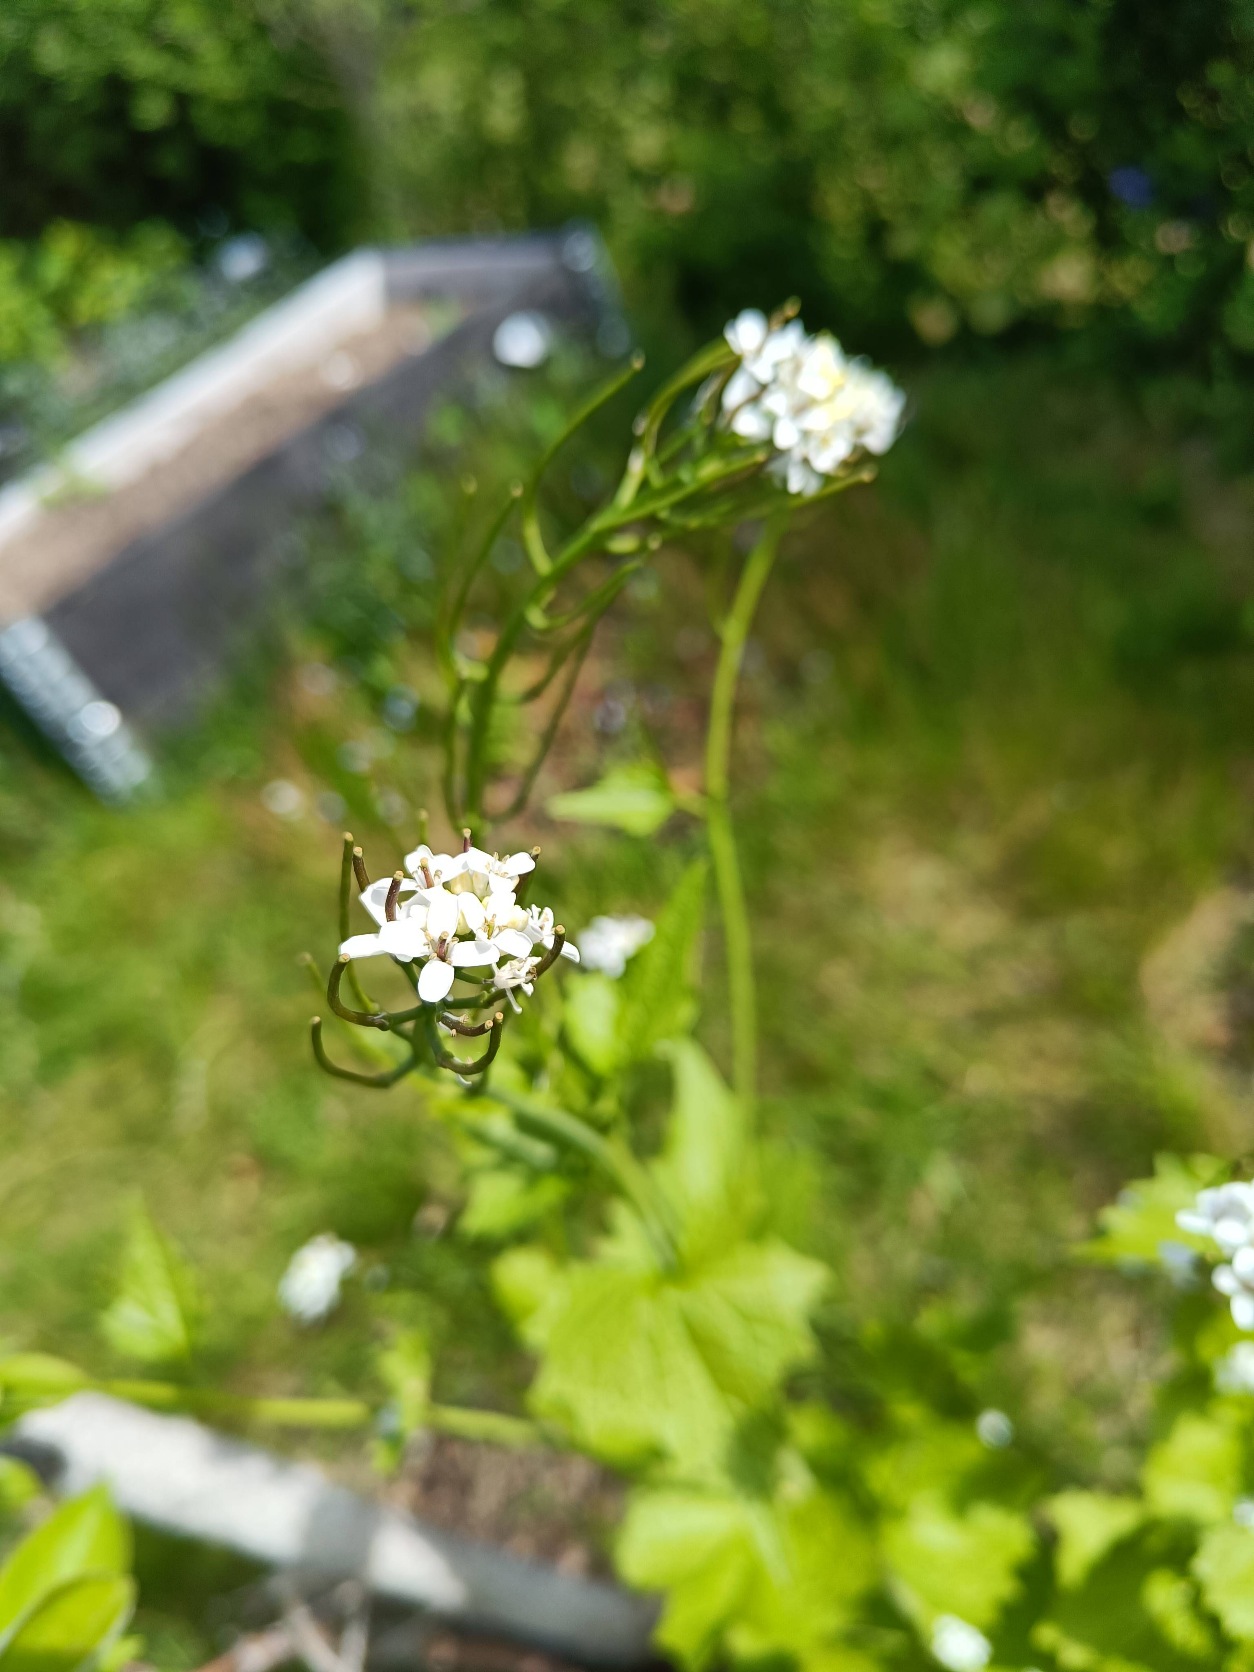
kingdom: Plantae
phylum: Tracheophyta
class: Magnoliopsida
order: Brassicales
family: Brassicaceae
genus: Alliaria
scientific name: Alliaria petiolata
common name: Løgkarse
